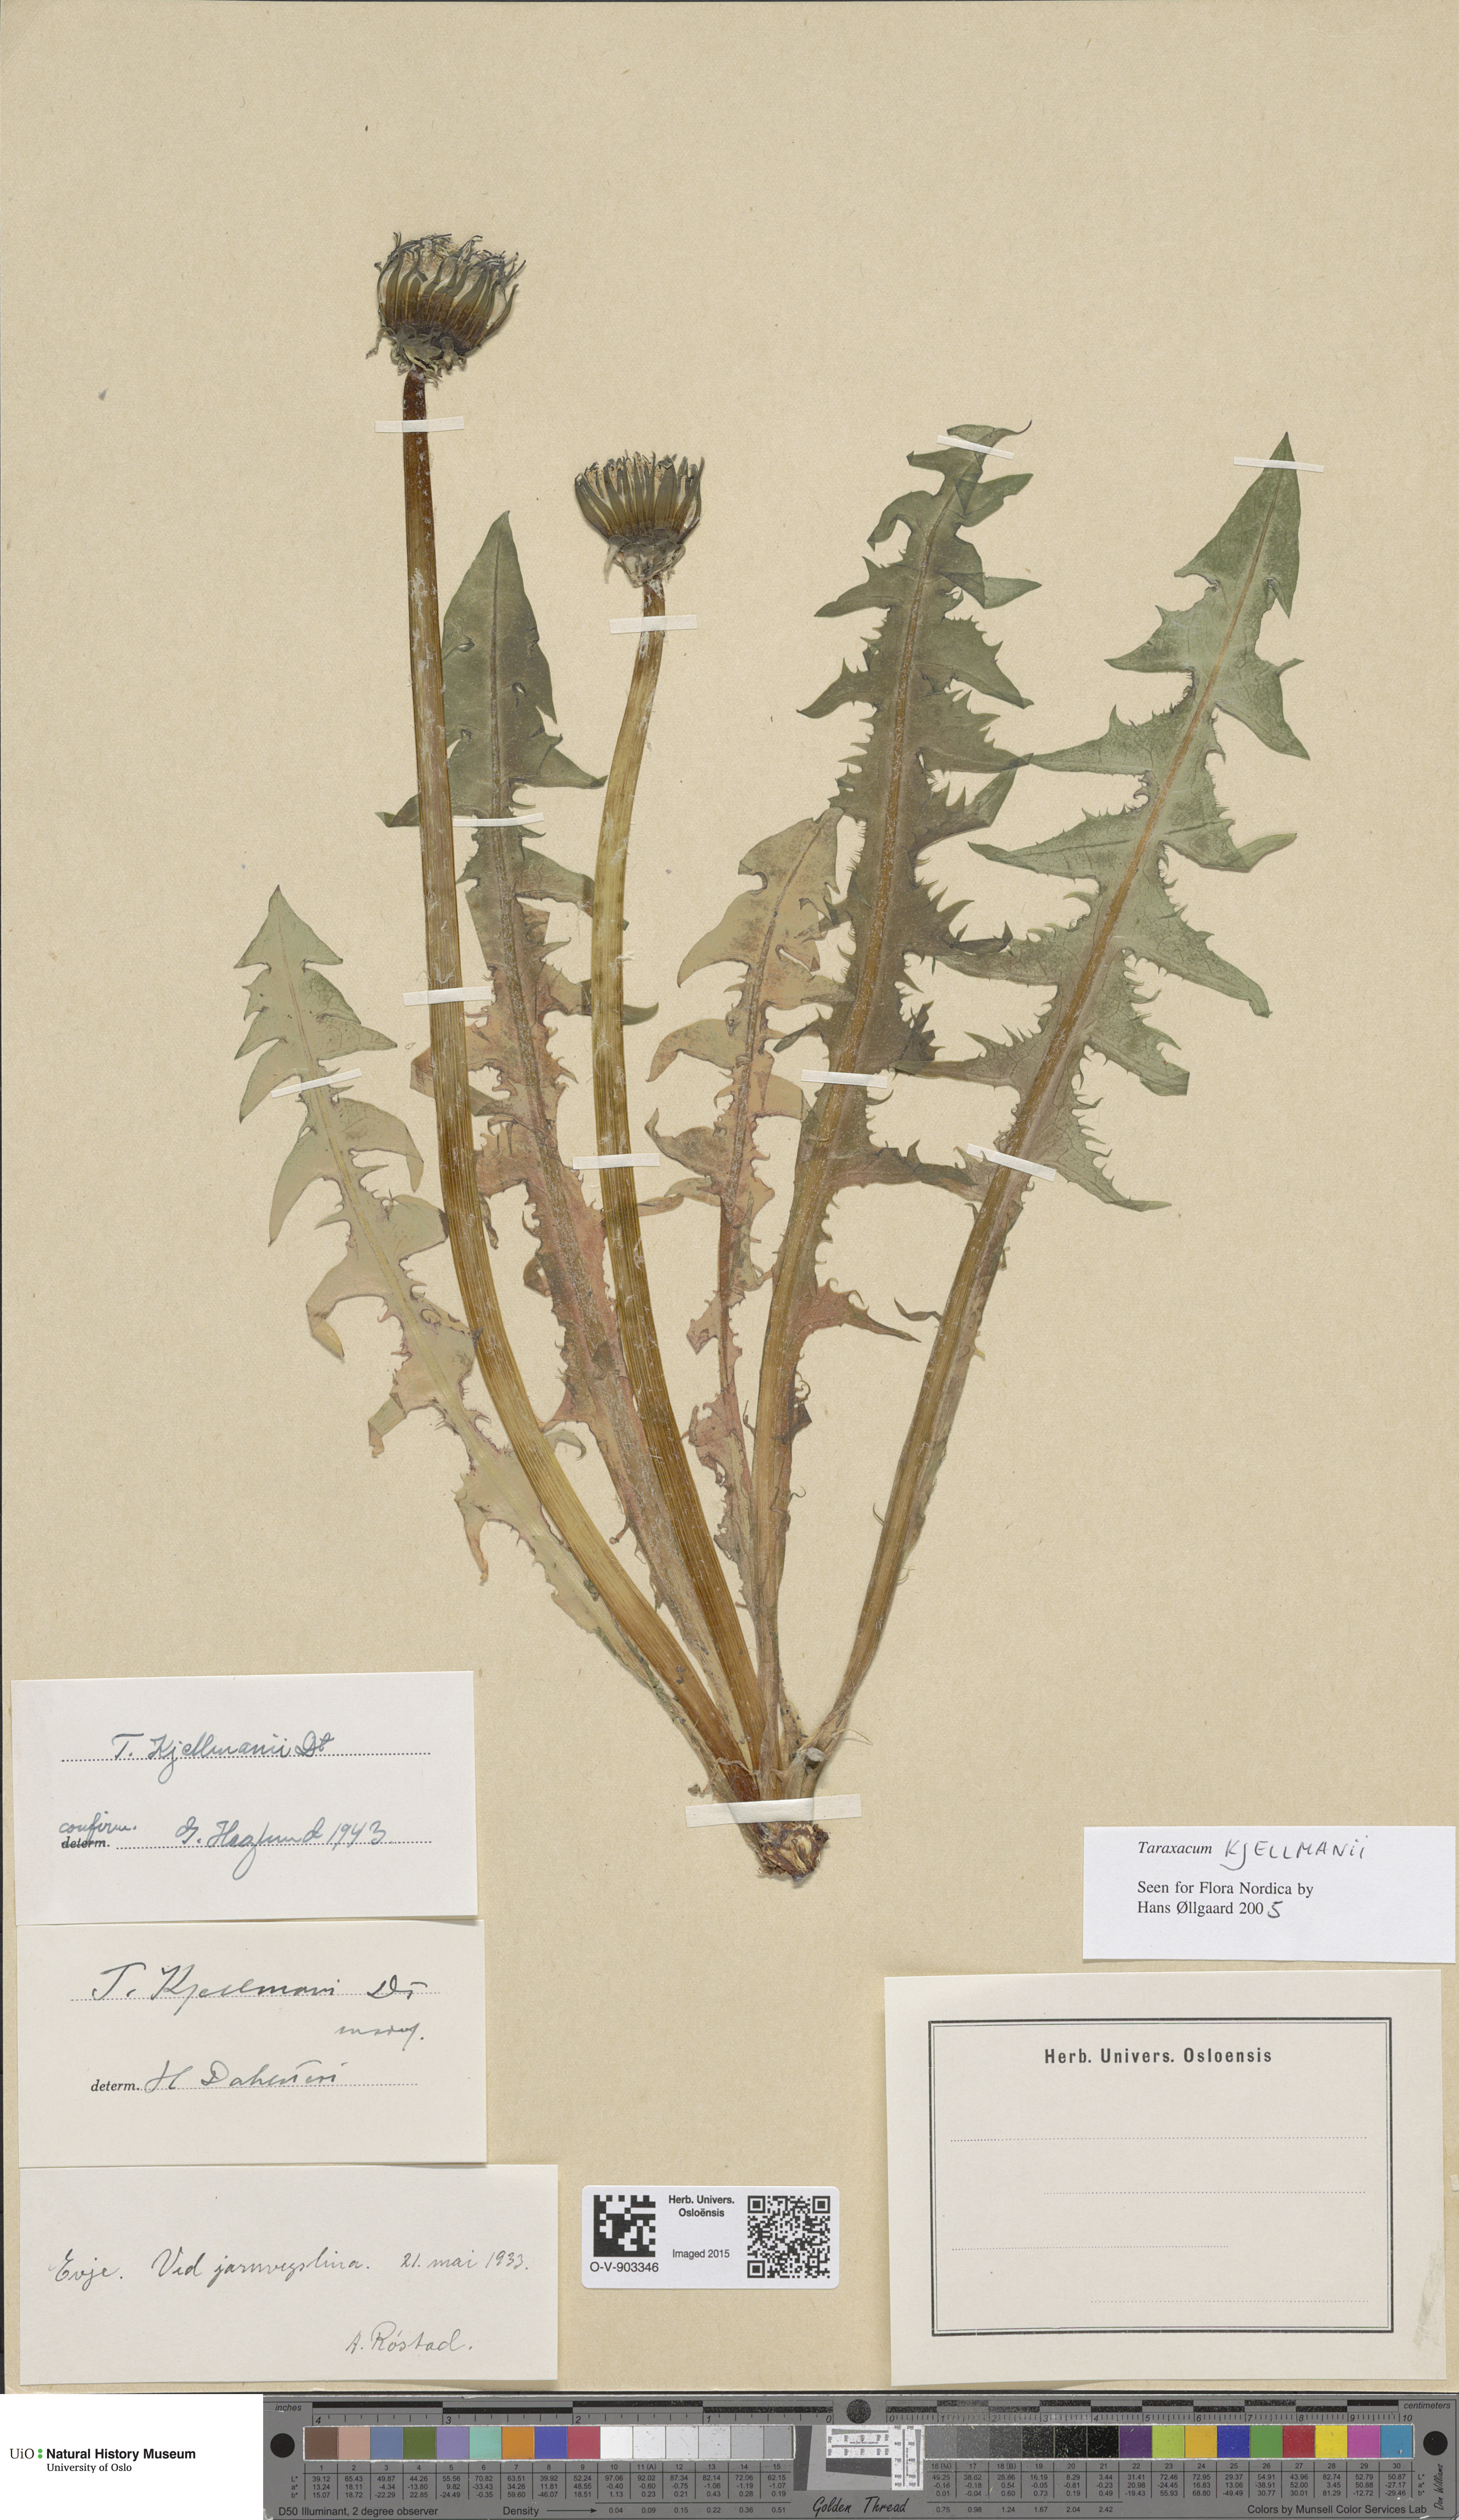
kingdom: Plantae
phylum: Tracheophyta
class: Magnoliopsida
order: Asterales
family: Asteraceae
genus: Taraxacum
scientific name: Taraxacum kjellmanii
